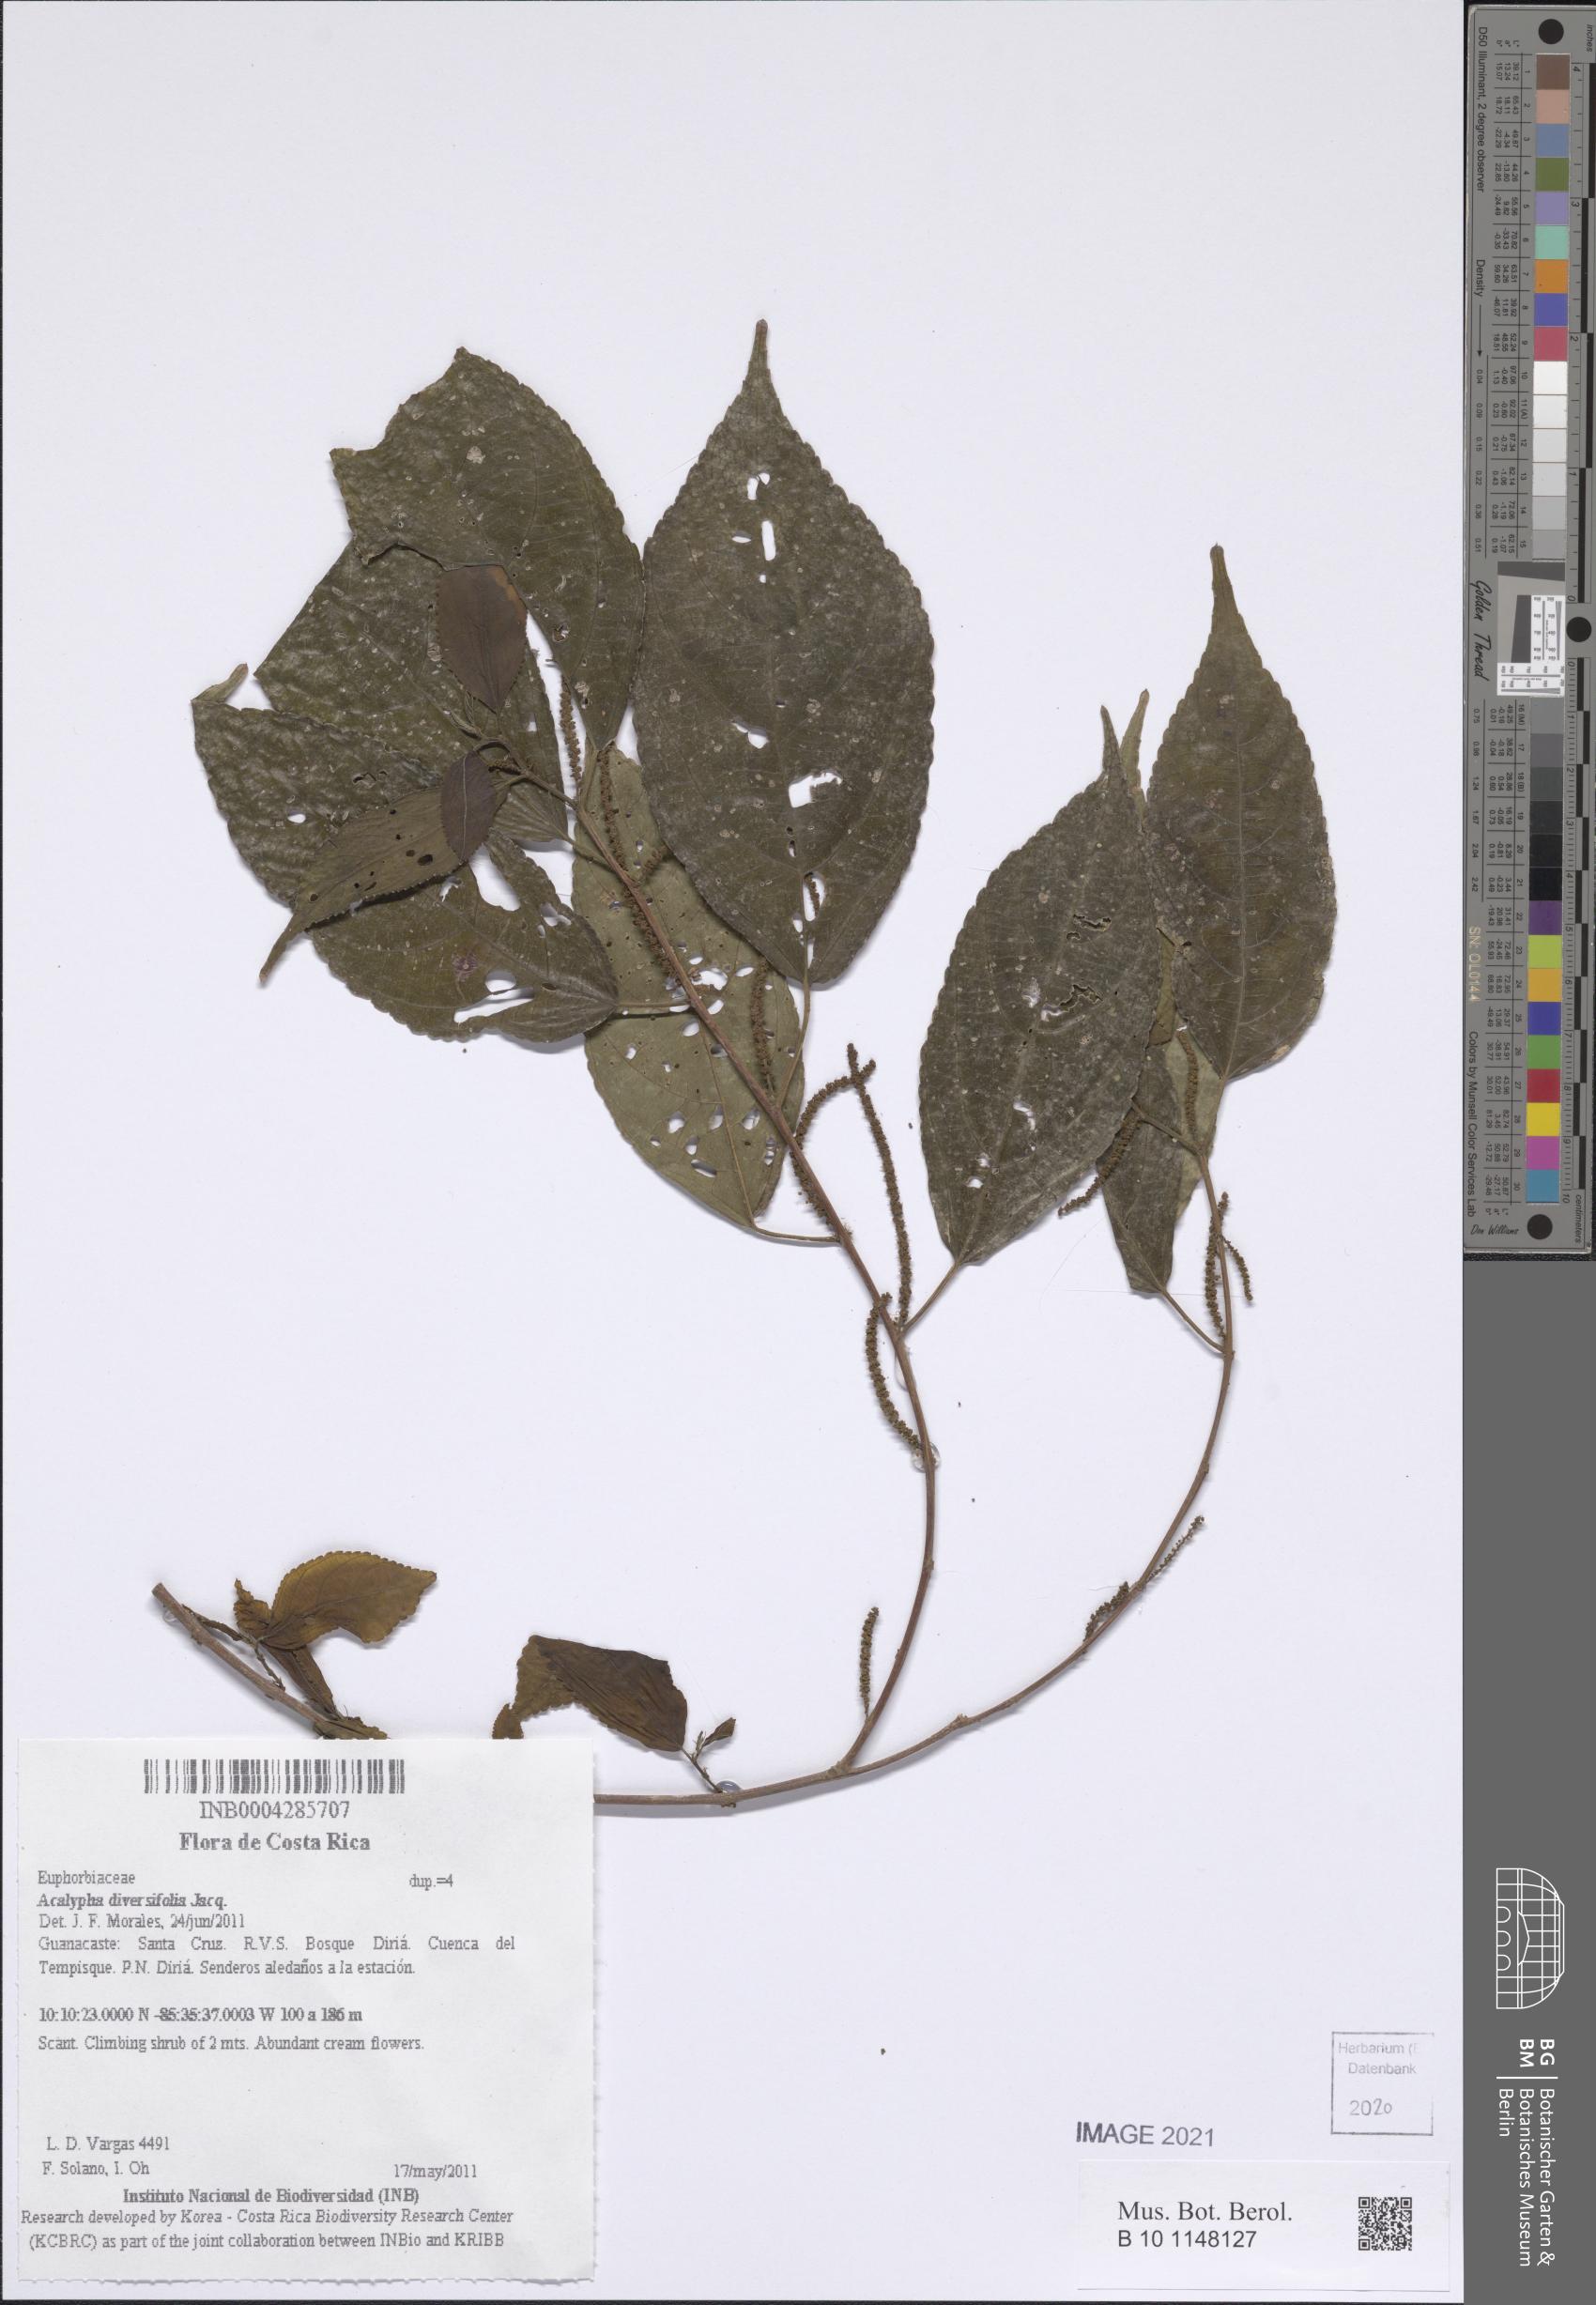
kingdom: Plantae
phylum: Tracheophyta
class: Magnoliopsida
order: Malpighiales
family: Euphorbiaceae
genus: Acalypha
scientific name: Acalypha diversifolia
